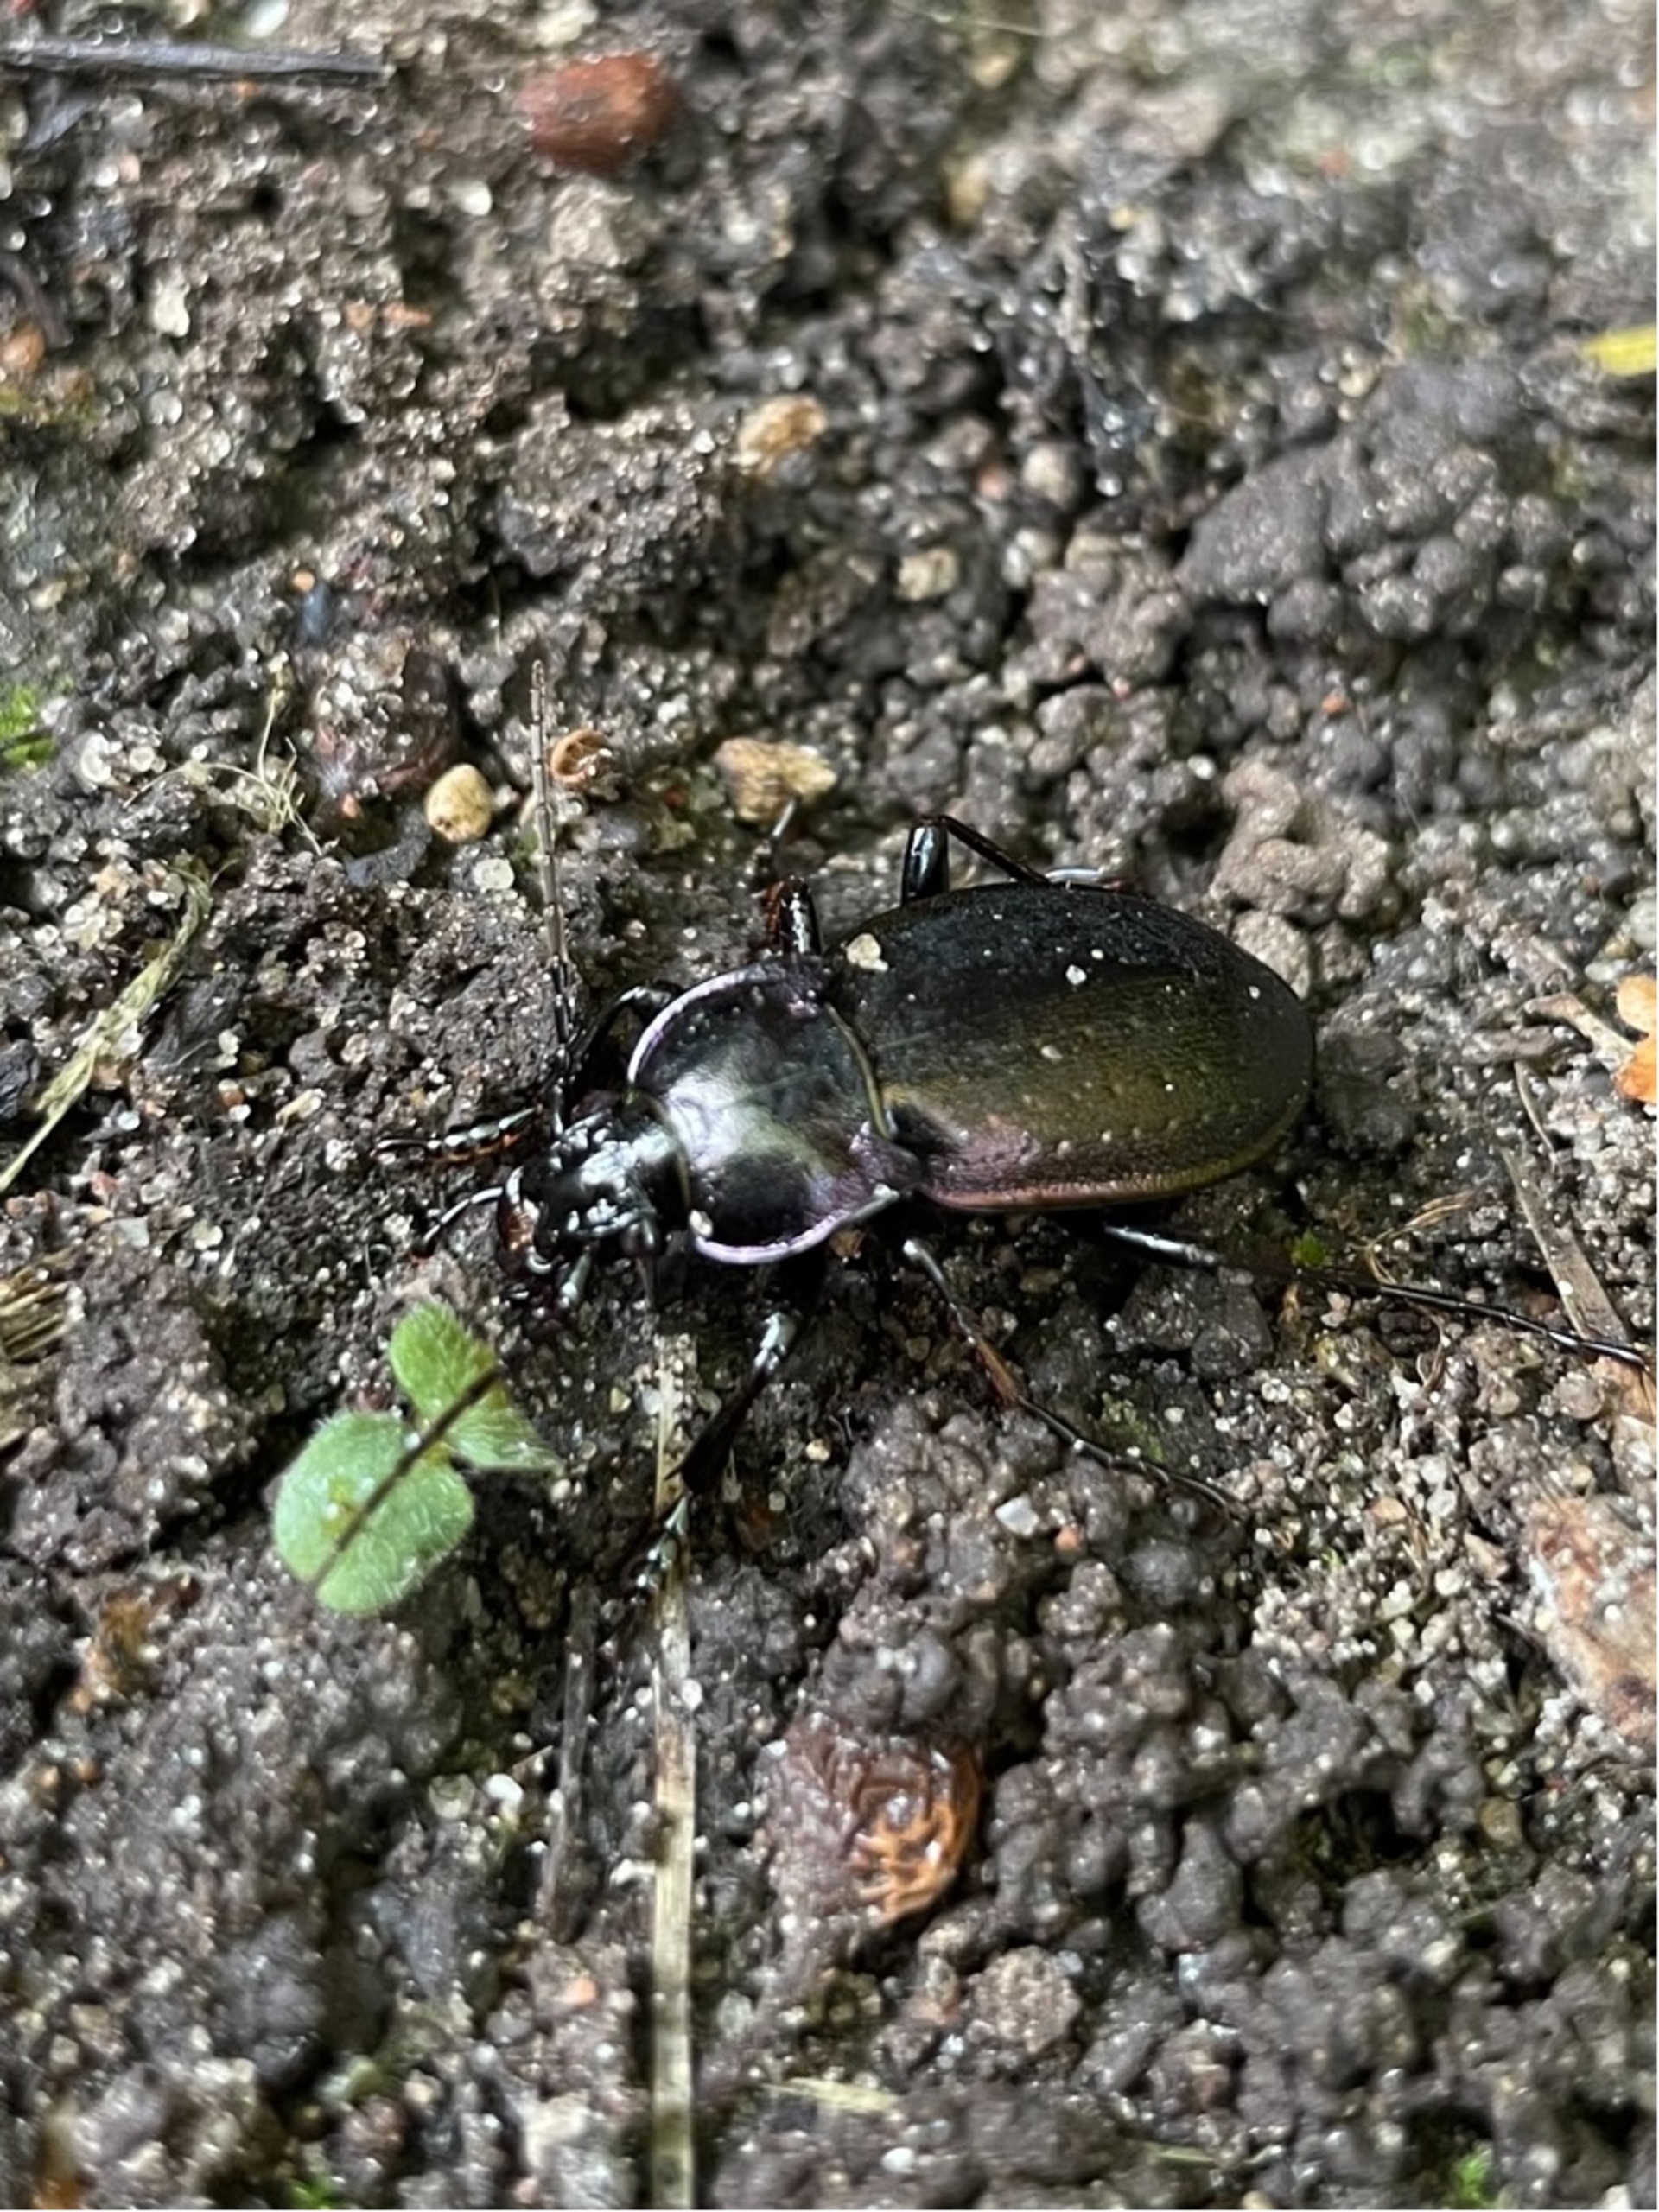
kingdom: Animalia
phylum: Arthropoda
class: Insecta
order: Coleoptera
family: Carabidae
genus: Carabus
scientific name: Carabus nemoralis
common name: Kratløber
